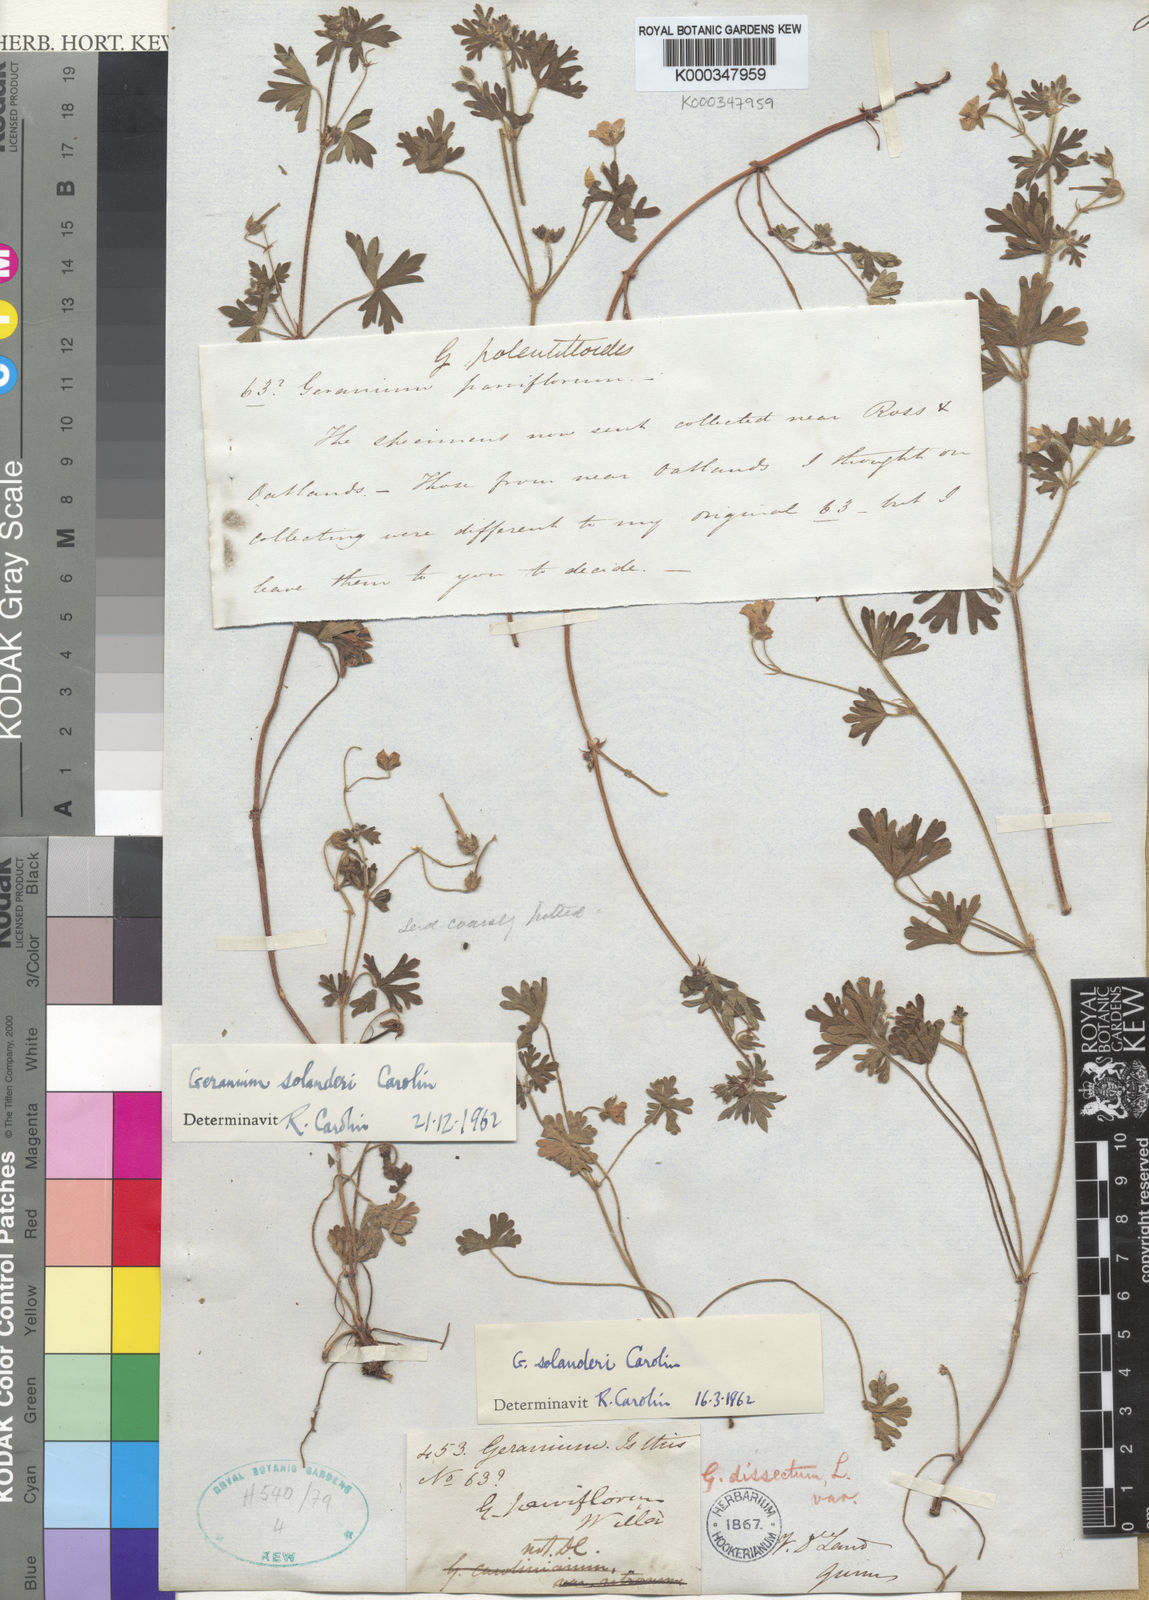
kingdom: Plantae
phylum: Tracheophyta
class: Magnoliopsida
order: Geraniales
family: Geraniaceae
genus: Geranium
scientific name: Geranium solanderi
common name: Solander's geranium
